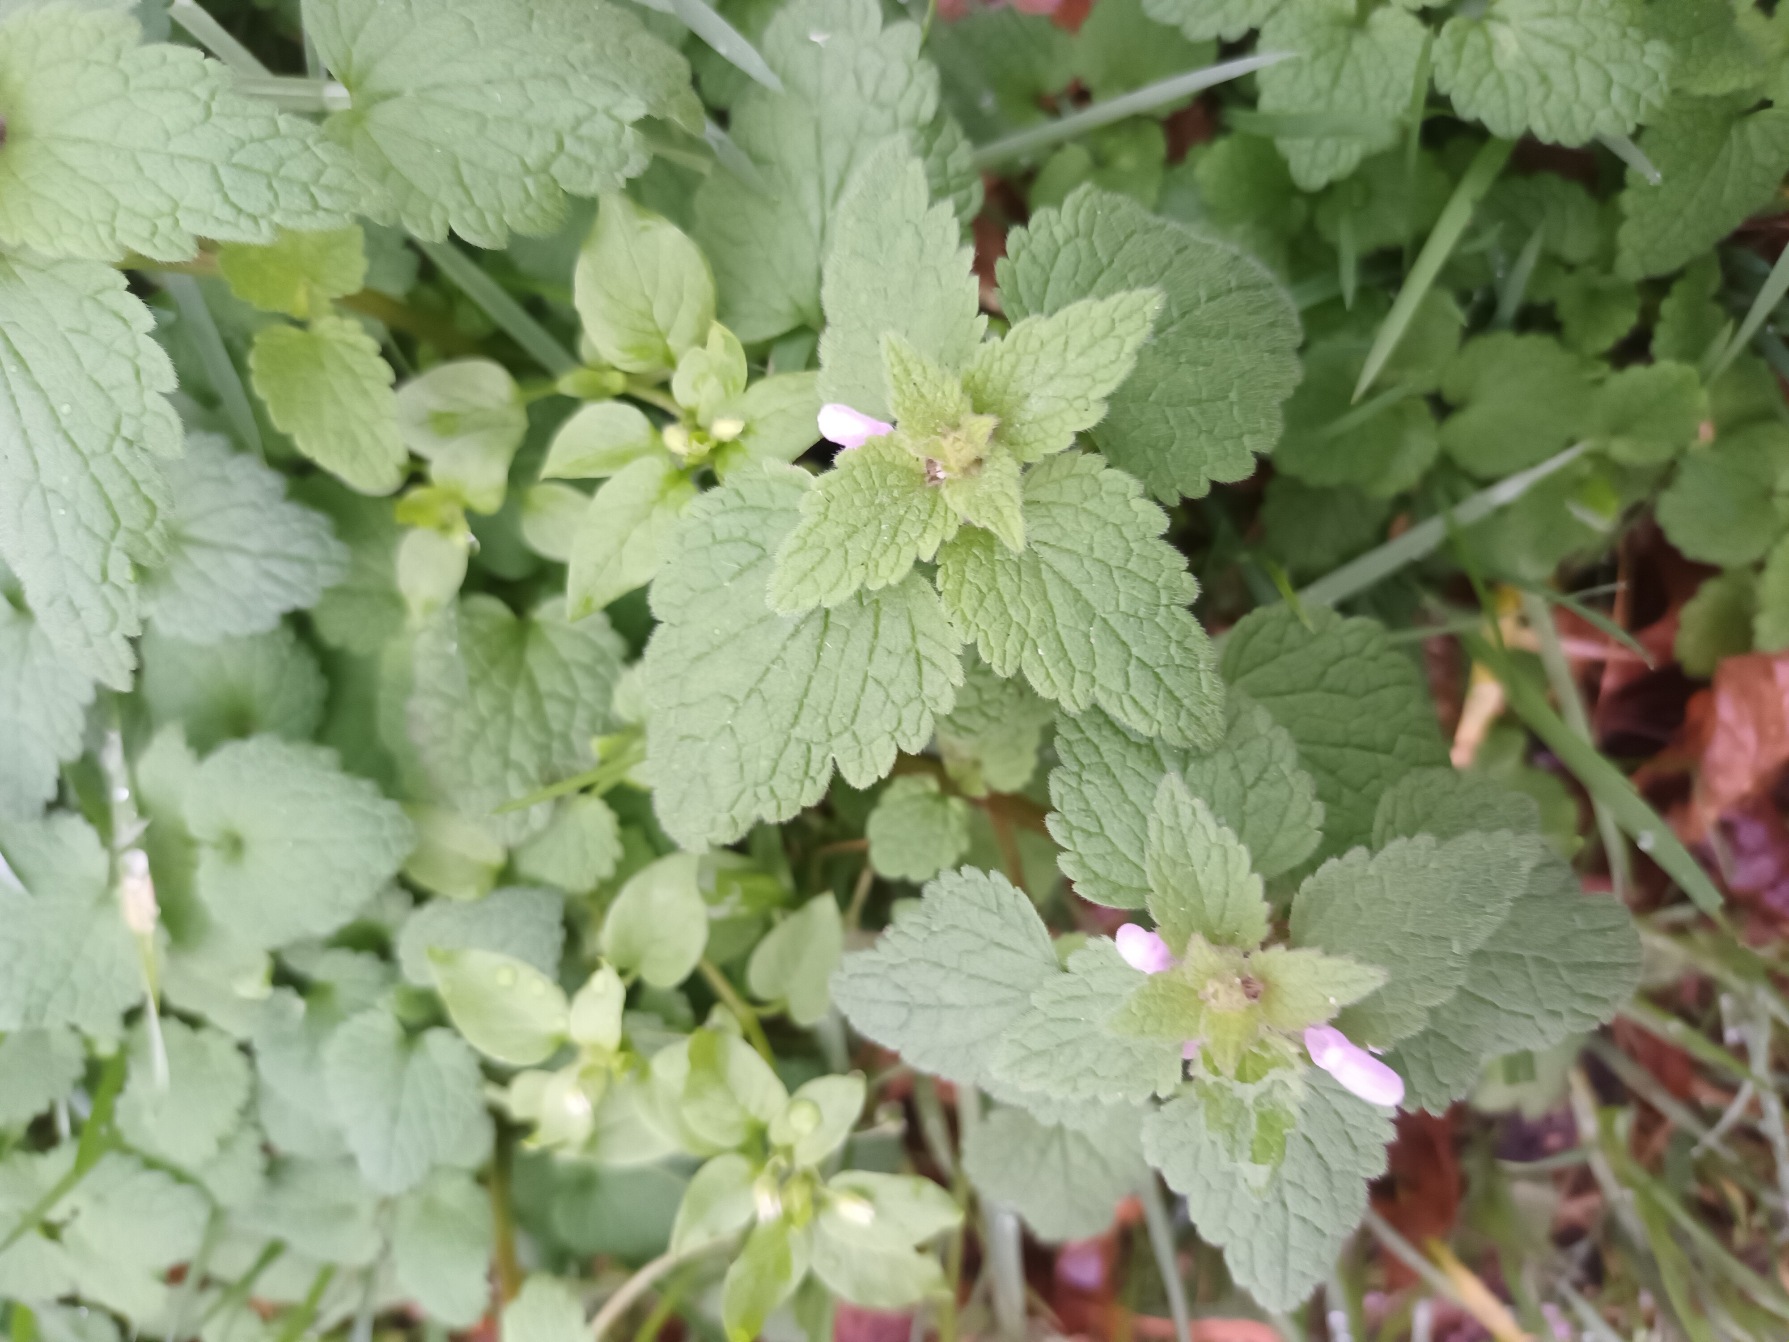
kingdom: Plantae
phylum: Tracheophyta
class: Magnoliopsida
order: Lamiales
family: Lamiaceae
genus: Lamium
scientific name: Lamium purpureum
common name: Rød tvetand
